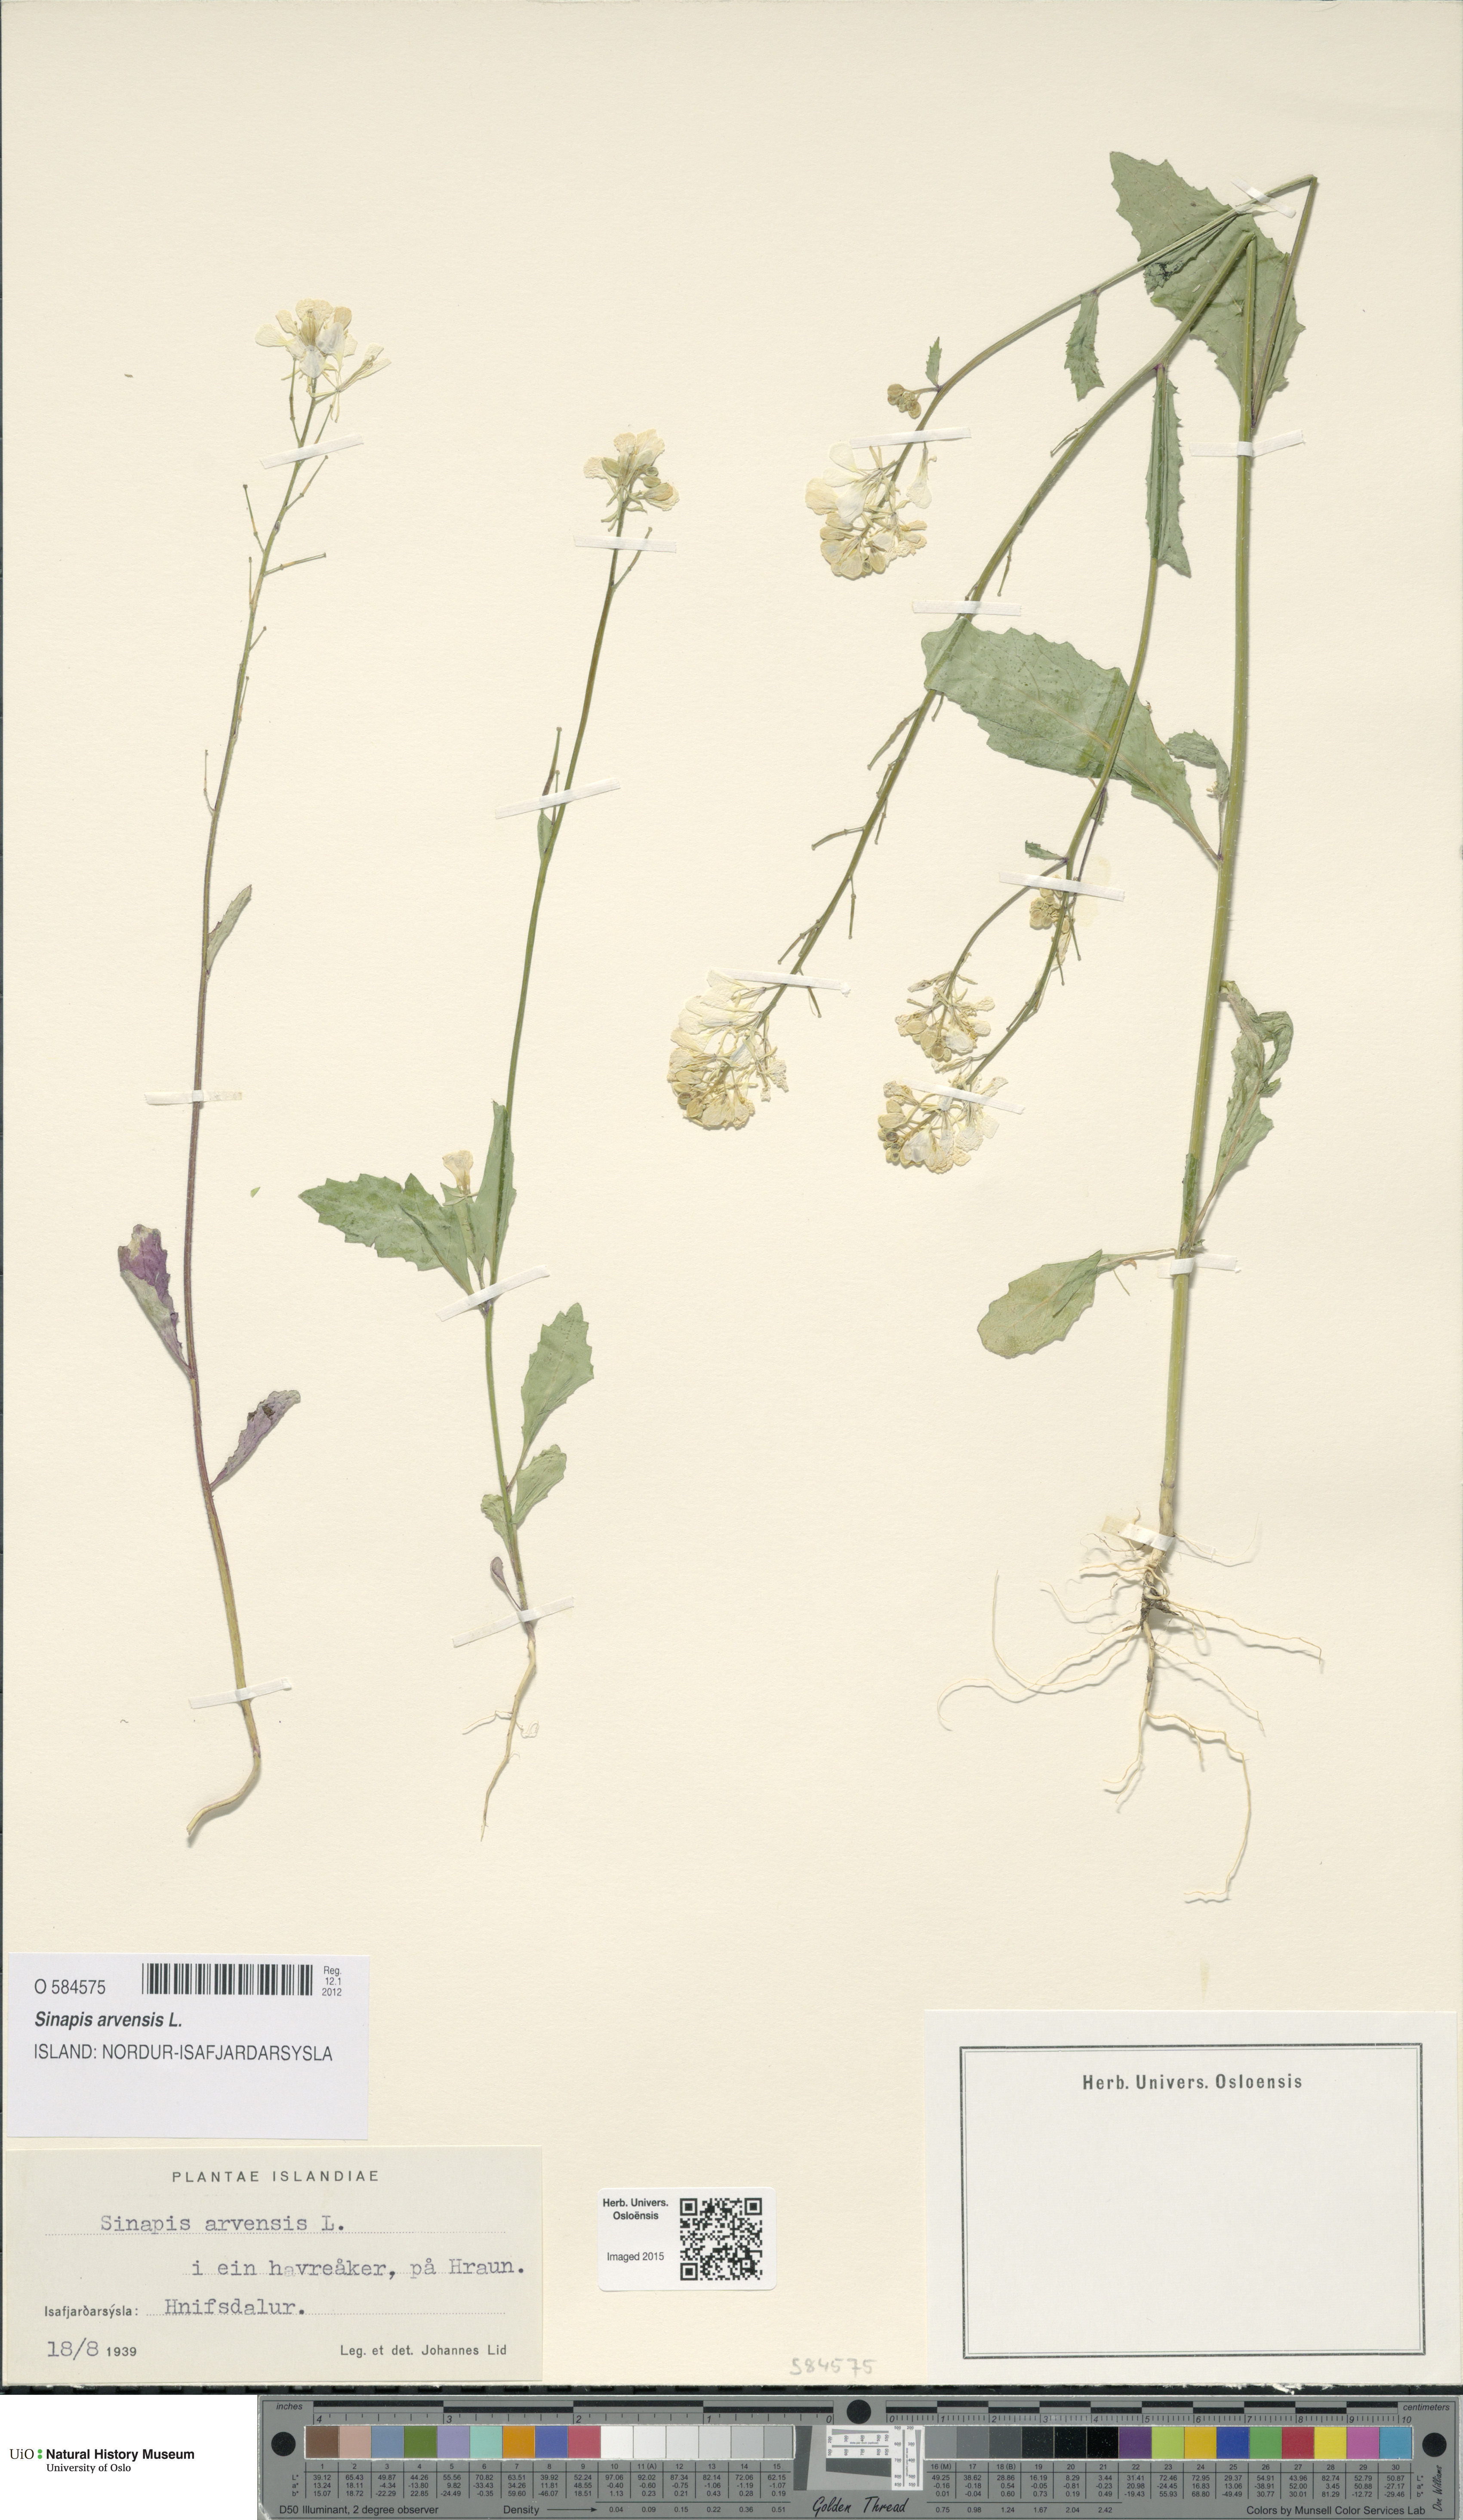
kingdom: Plantae
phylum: Tracheophyta
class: Magnoliopsida
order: Brassicales
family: Brassicaceae
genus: Sinapis
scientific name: Sinapis arvensis
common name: Charlock
